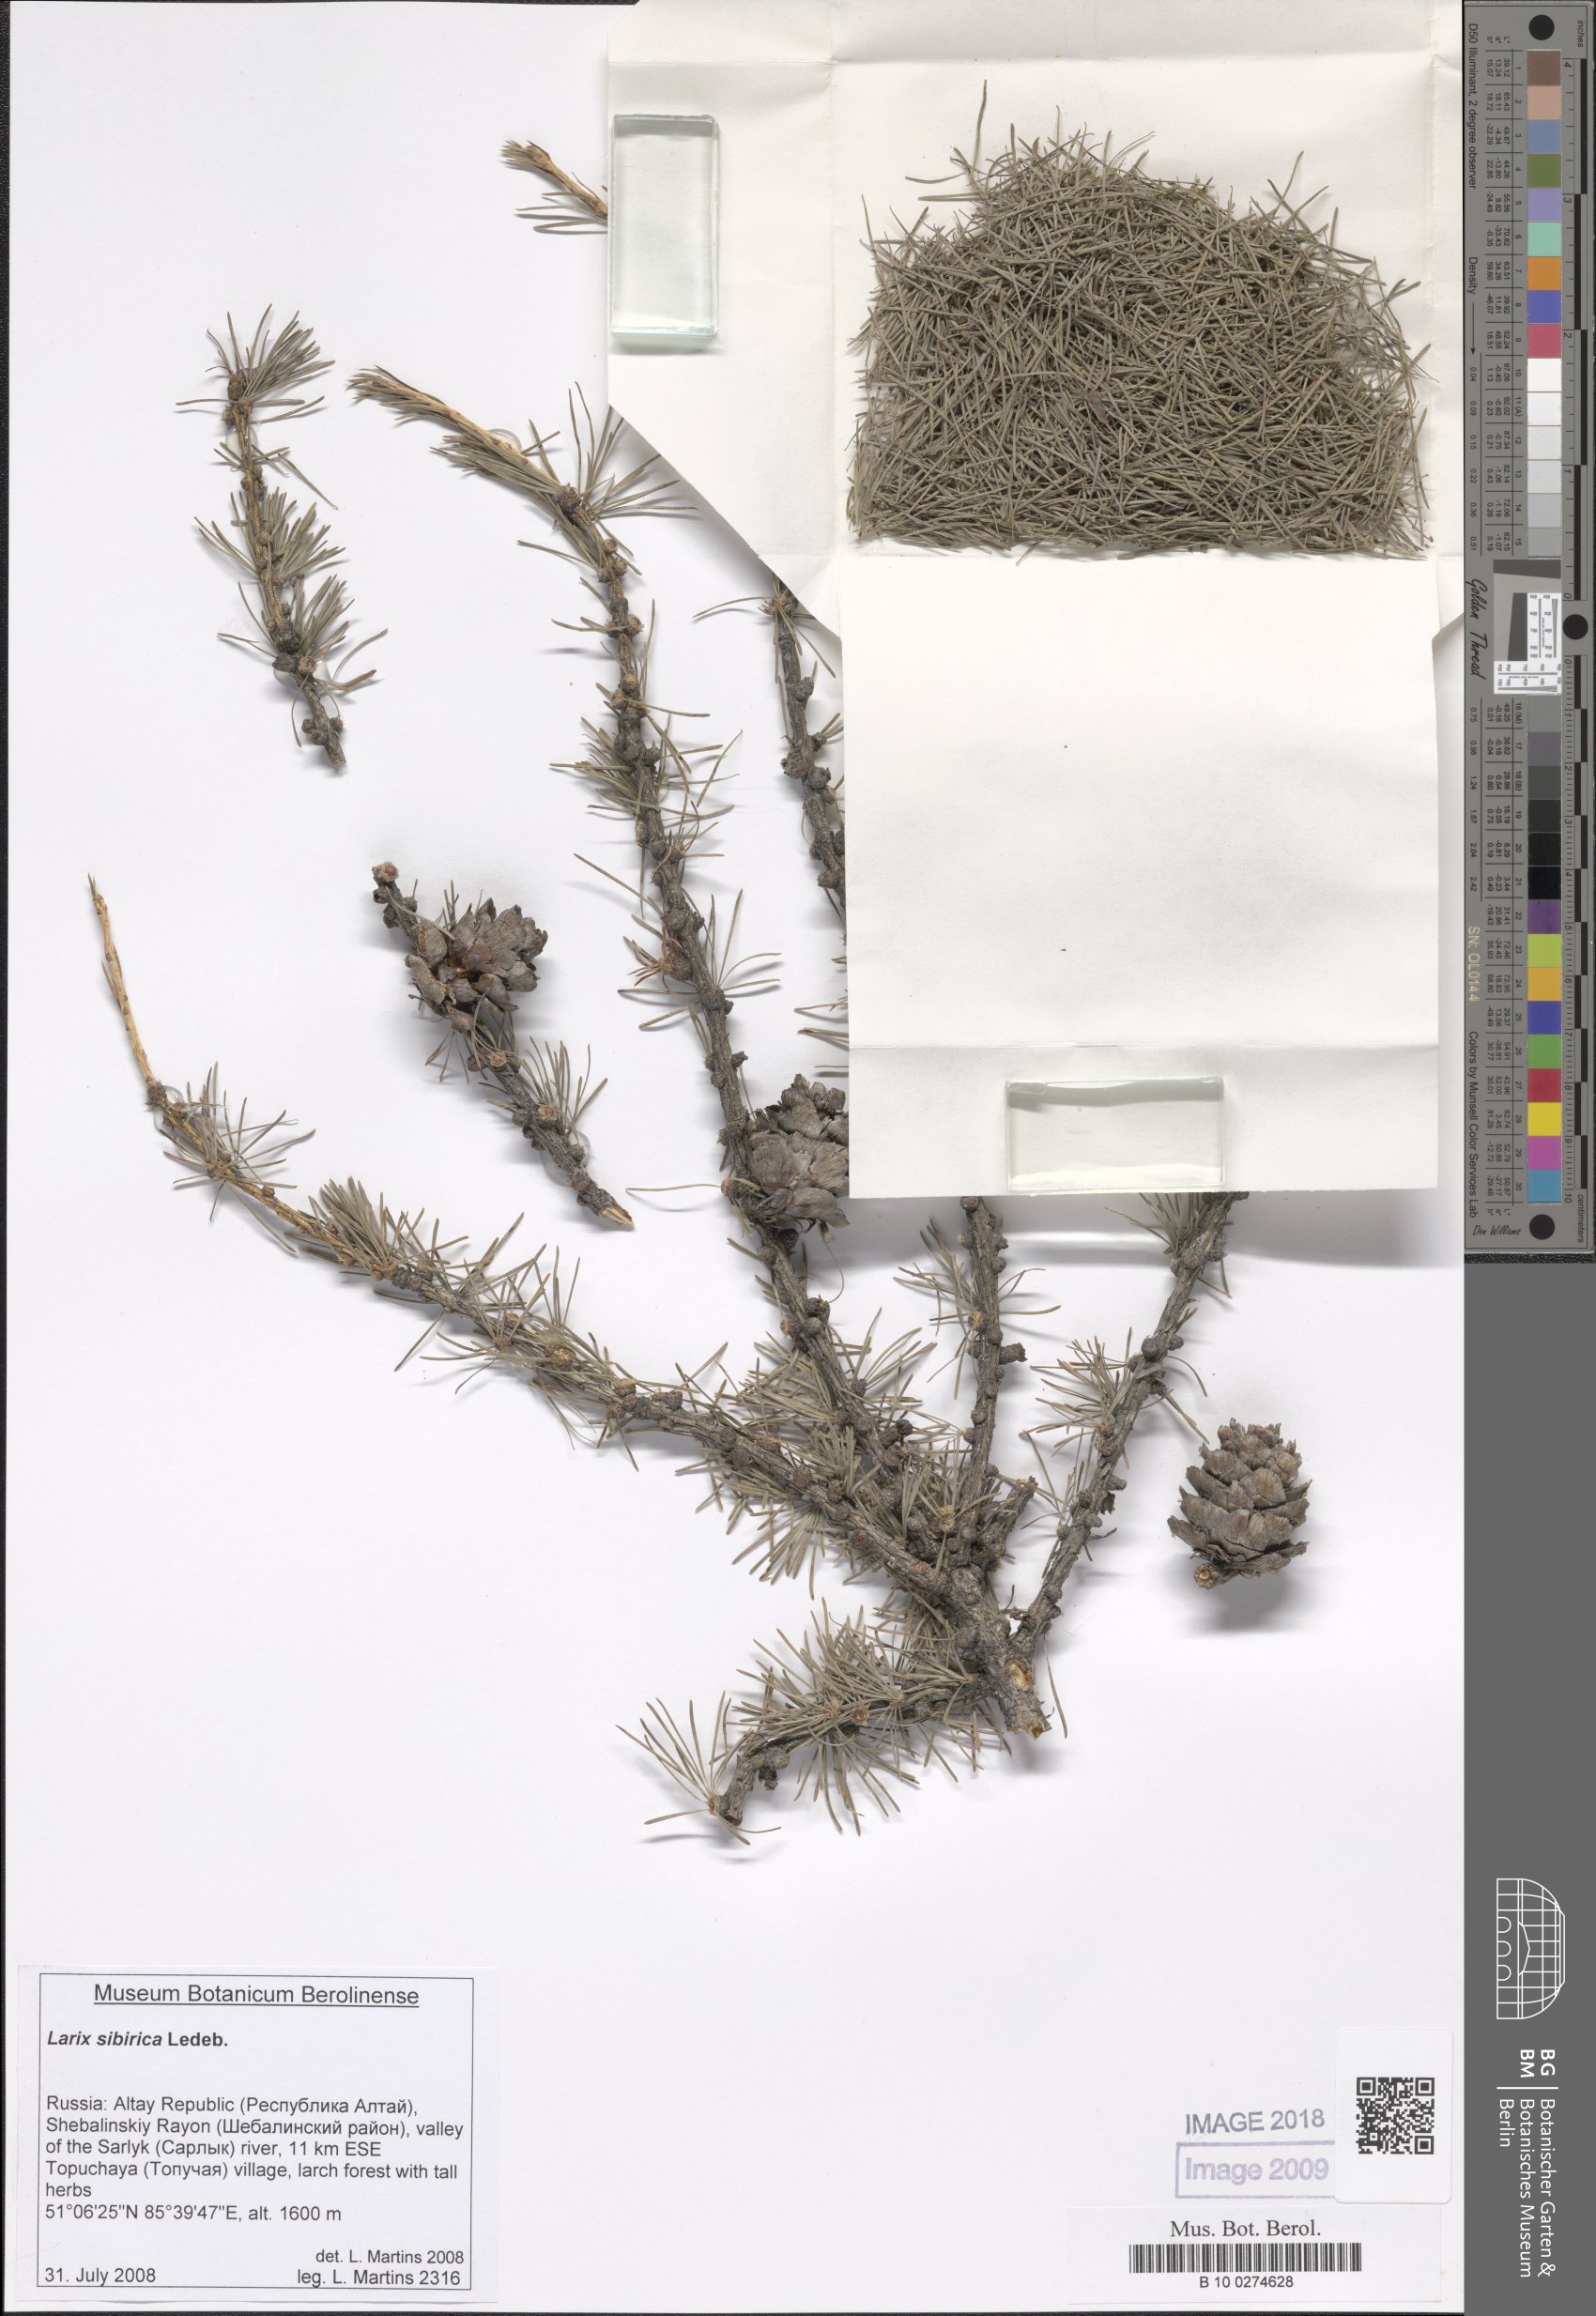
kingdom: Plantae
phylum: Tracheophyta
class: Pinopsida
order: Pinales
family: Pinaceae
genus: Larix
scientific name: Larix sibirica
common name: Siberian larch
